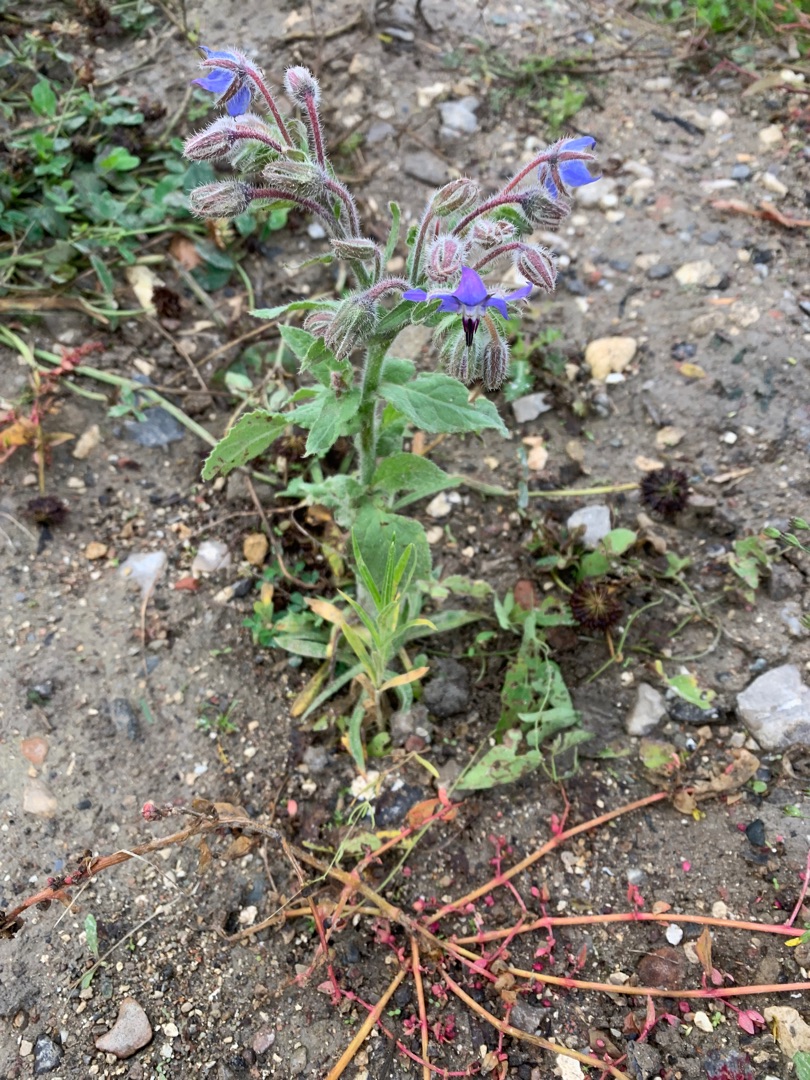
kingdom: Plantae
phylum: Tracheophyta
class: Magnoliopsida
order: Boraginales
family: Boraginaceae
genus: Borago
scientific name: Borago officinalis
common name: Hjulkrone
